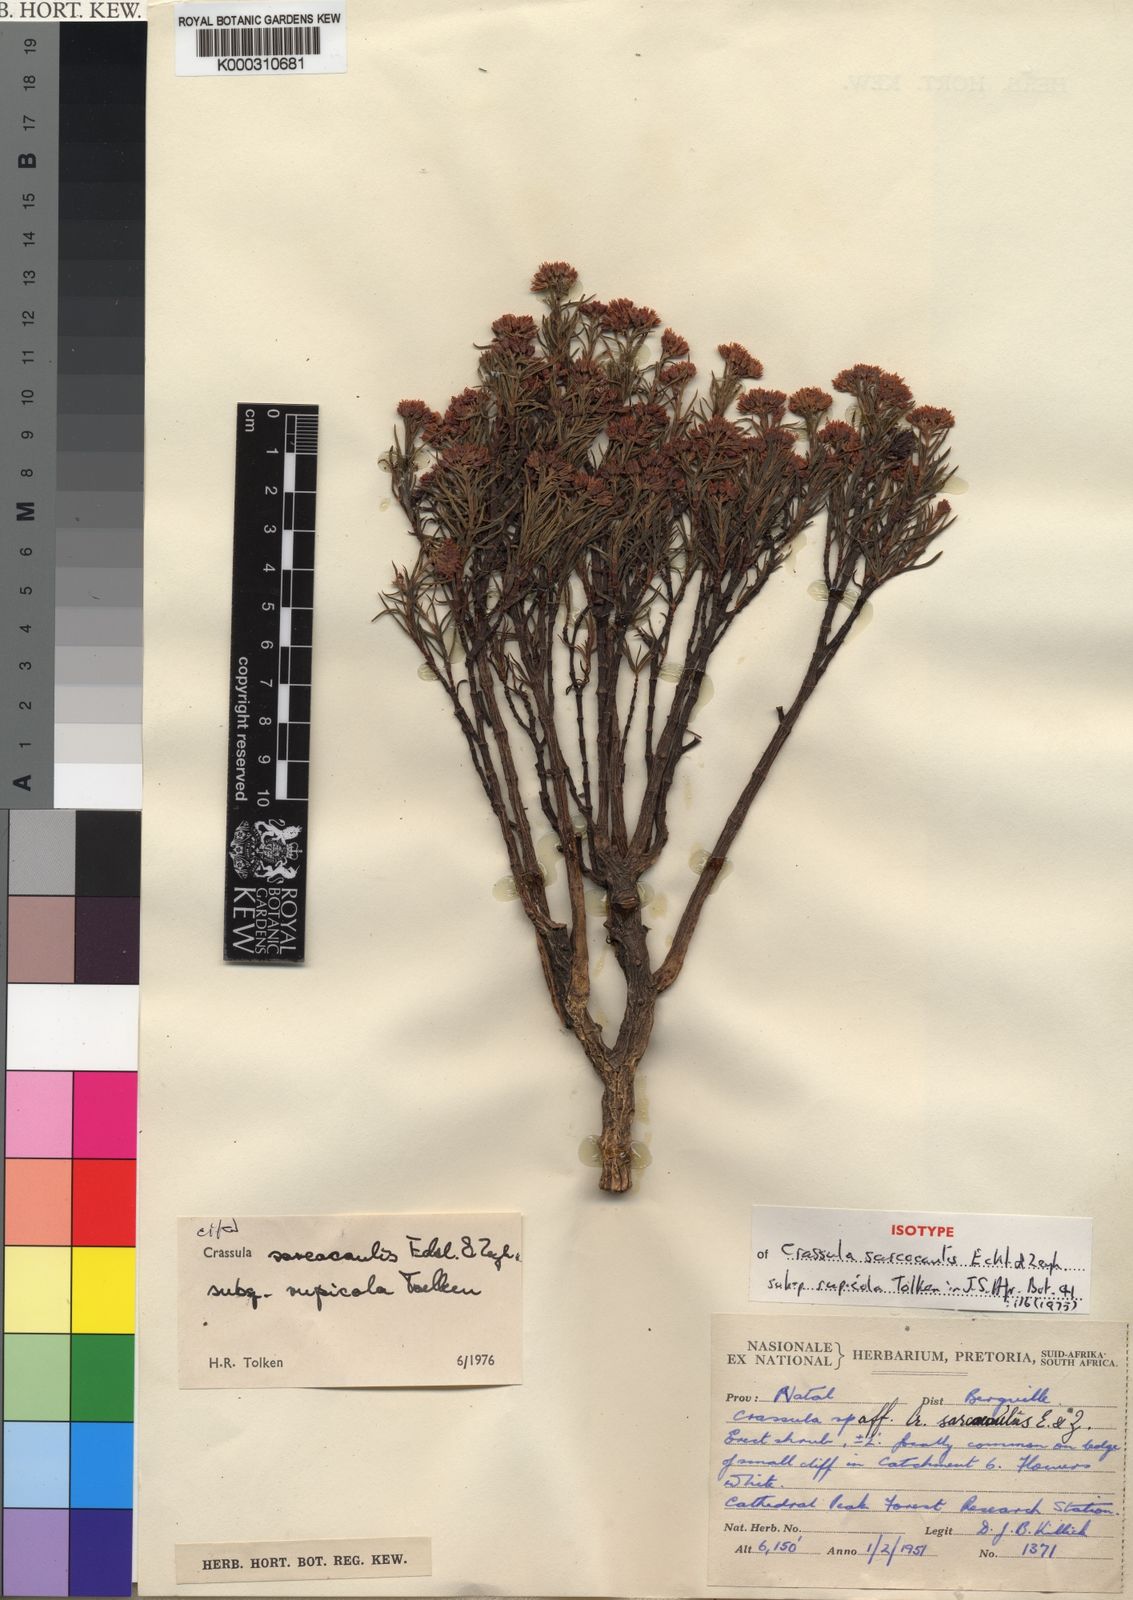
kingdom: Plantae
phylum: Tracheophyta
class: Magnoliopsida
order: Saxifragales
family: Crassulaceae
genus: Crassula
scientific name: Crassula sarcocaulis
